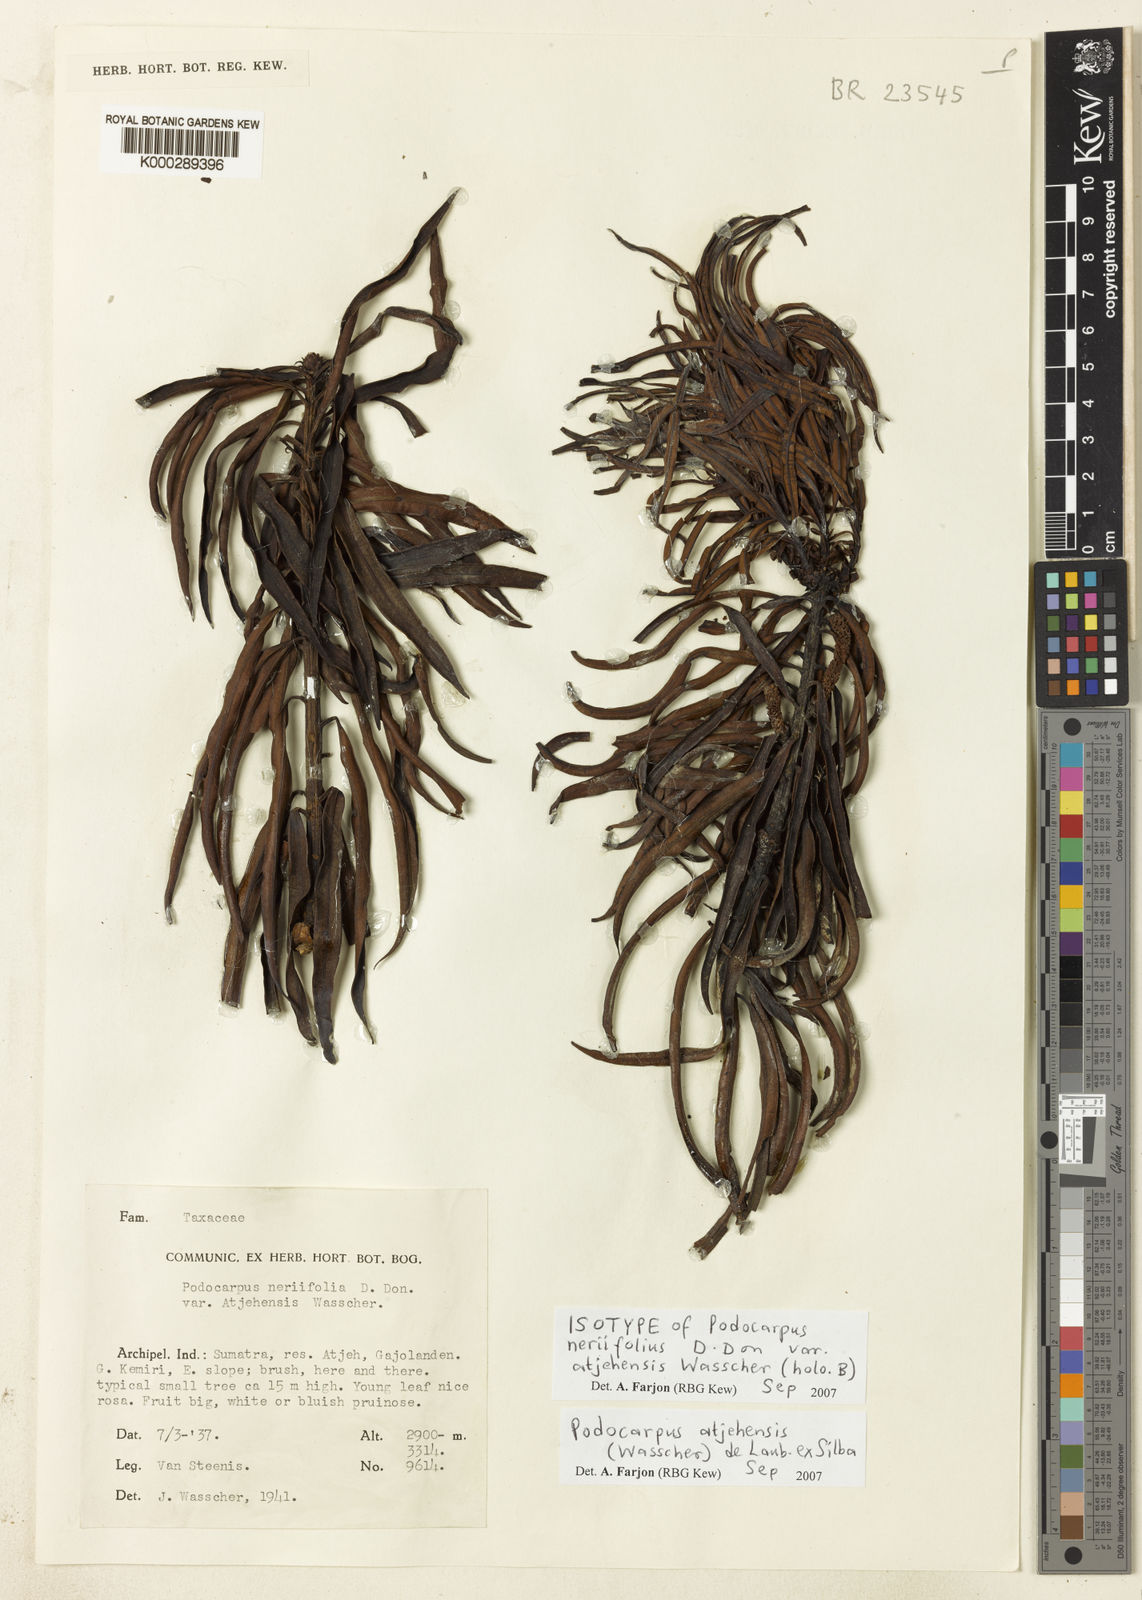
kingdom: Plantae
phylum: Tracheophyta
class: Pinopsida
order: Pinales
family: Podocarpaceae
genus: Podocarpus
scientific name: Podocarpus
